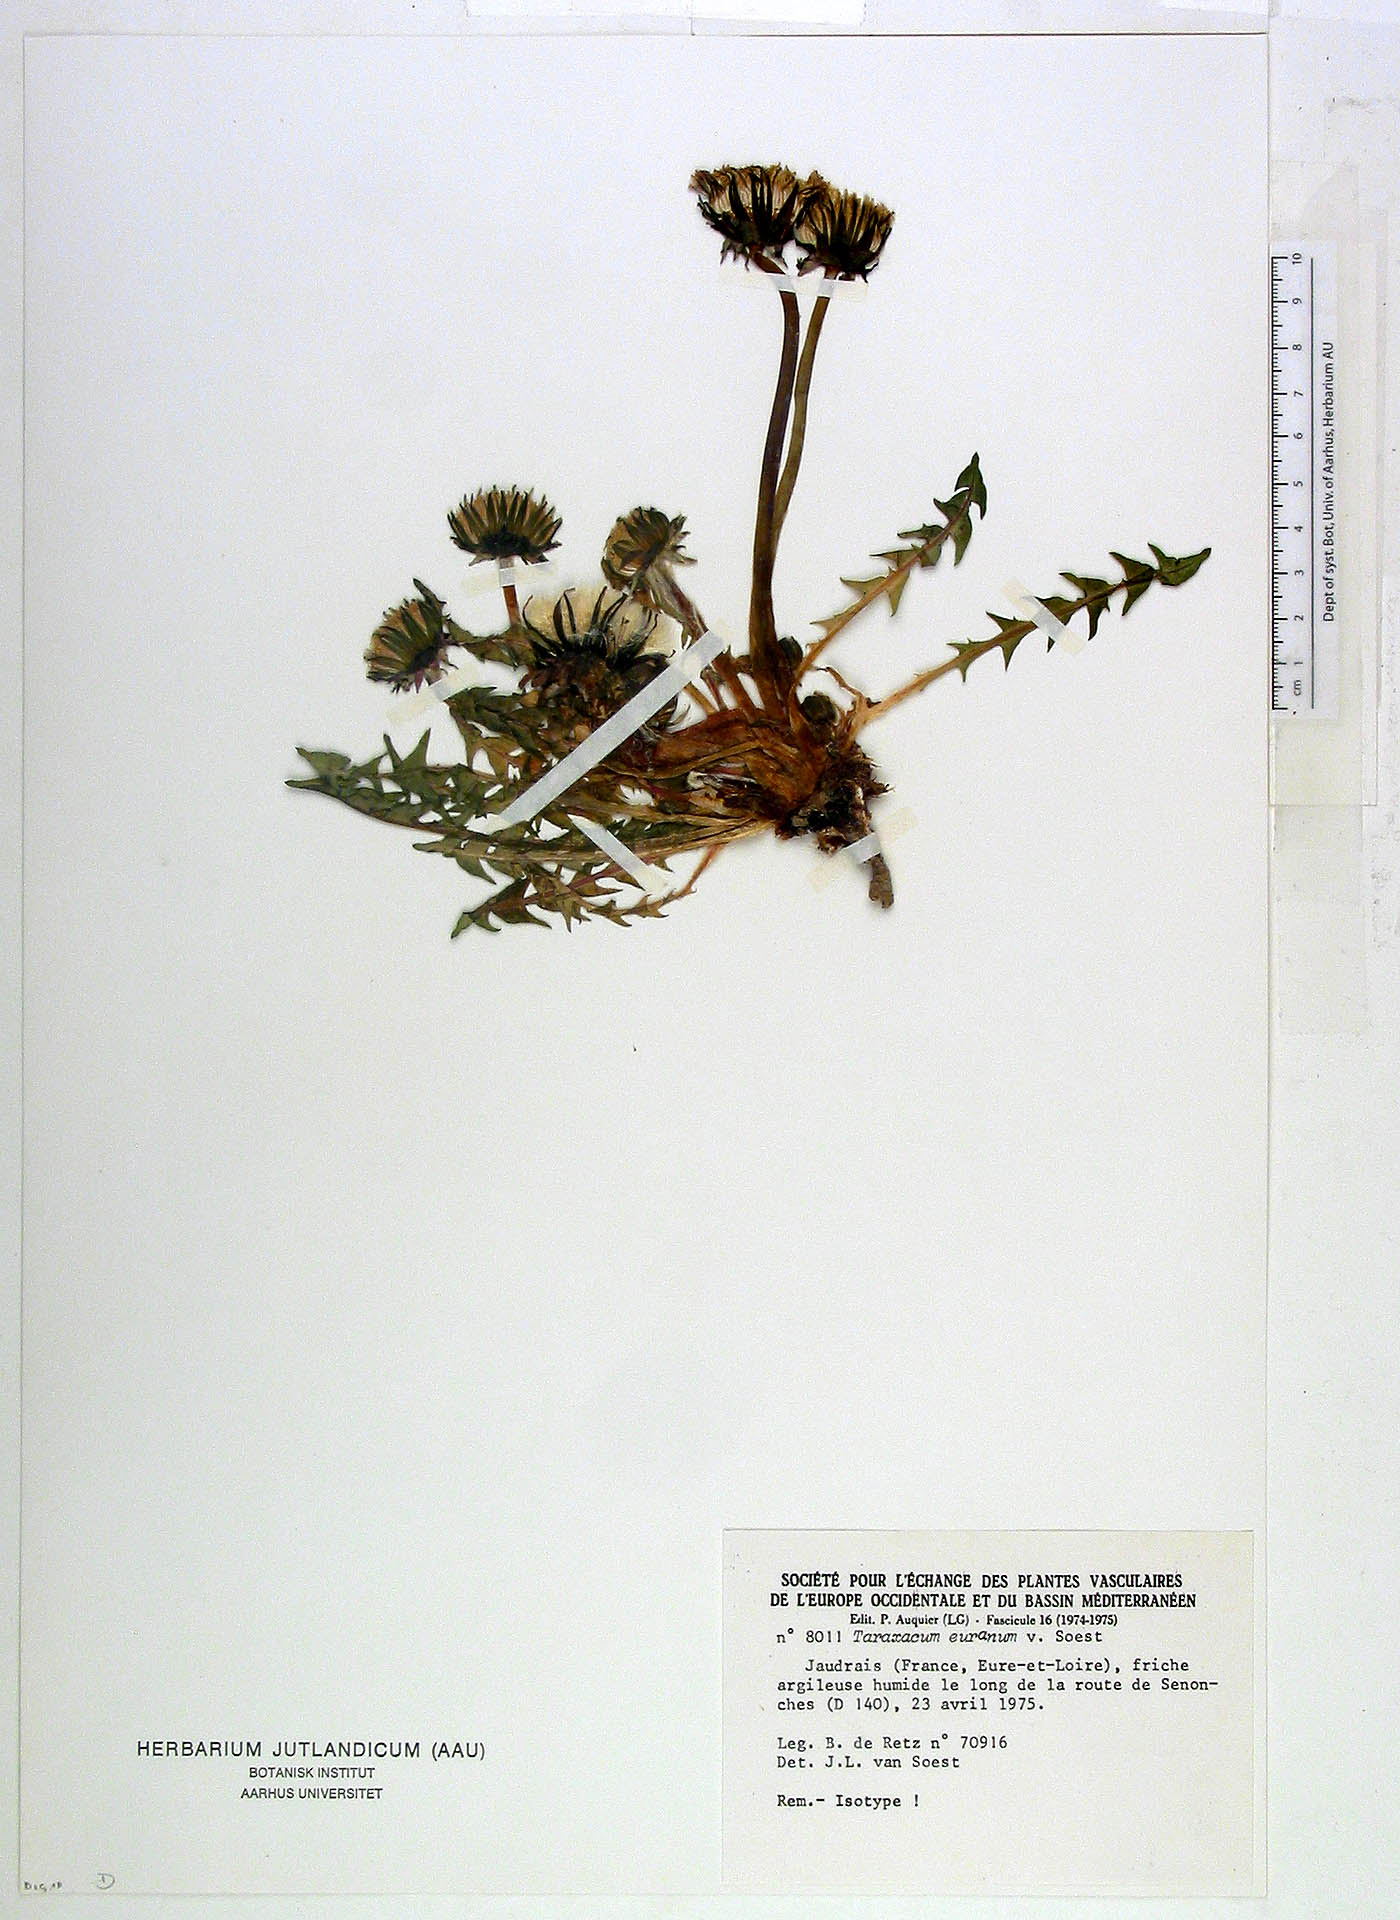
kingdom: Plantae
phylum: Tracheophyta
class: Magnoliopsida
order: Asterales
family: Asteraceae
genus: Taraxacum
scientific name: Taraxacum euranum
